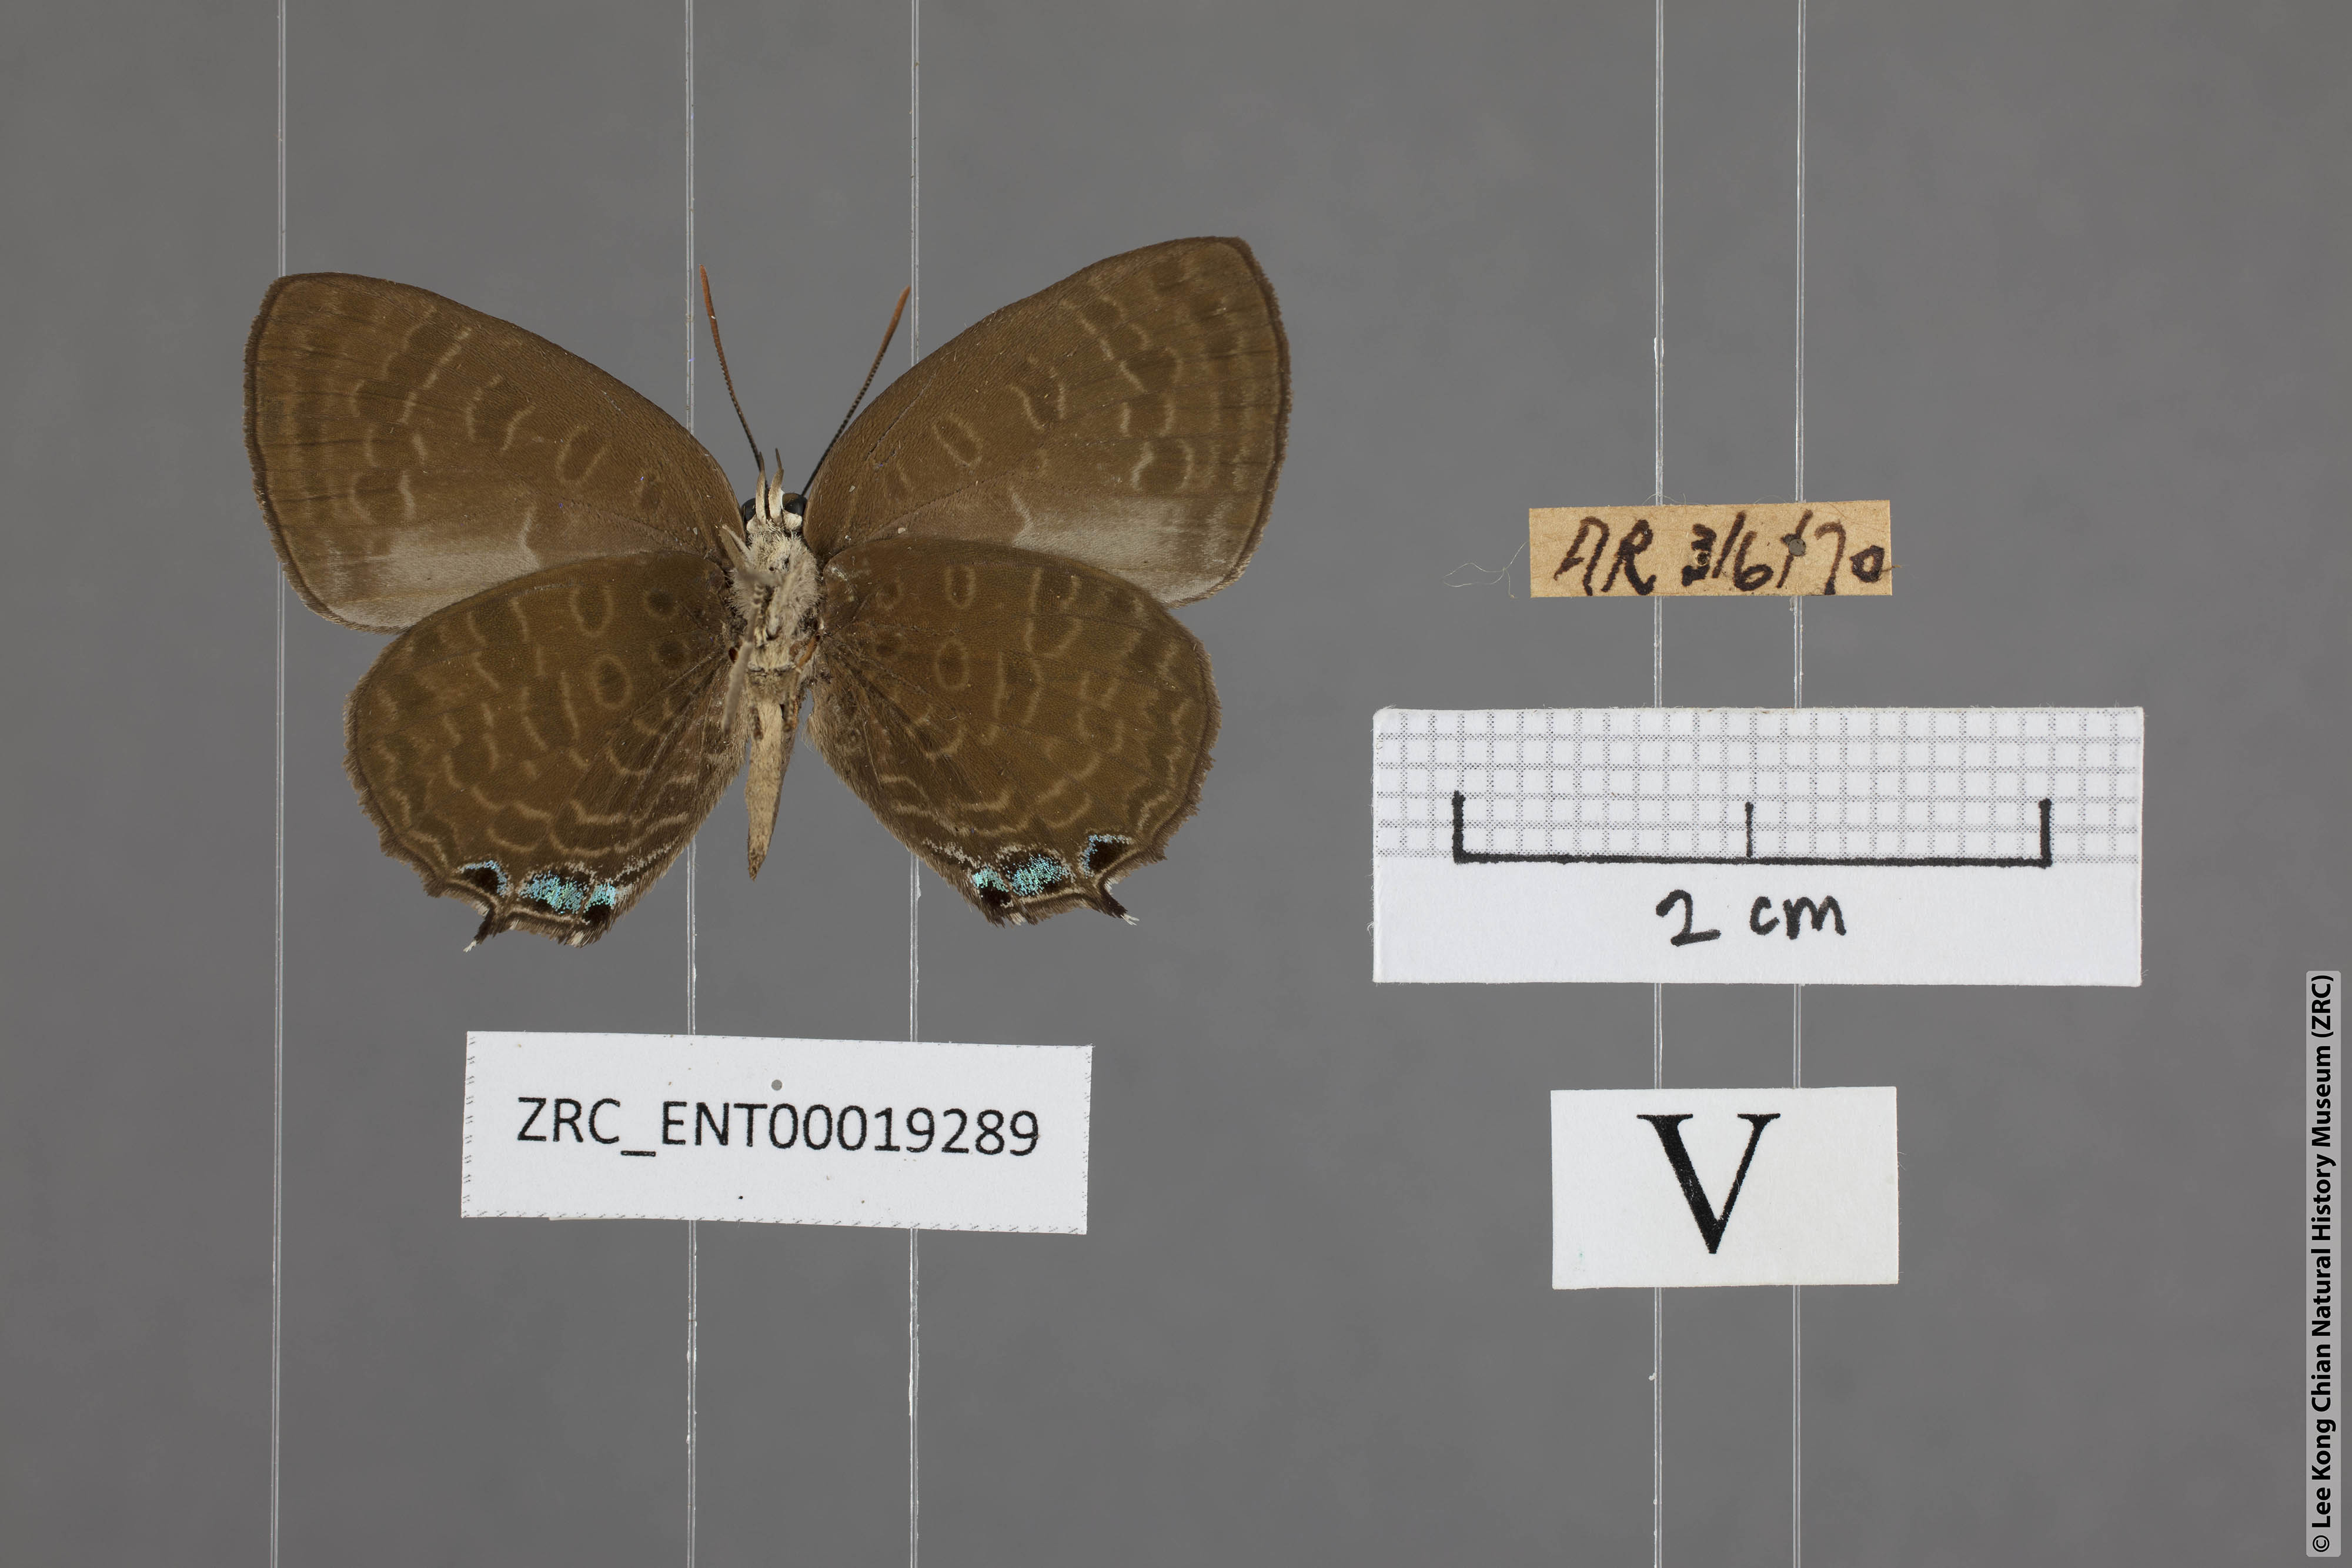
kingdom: Animalia
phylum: Arthropoda
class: Insecta
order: Lepidoptera
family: Lycaenidae
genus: Arhopala
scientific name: Arhopala aurea
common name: Long-celled oakblue
